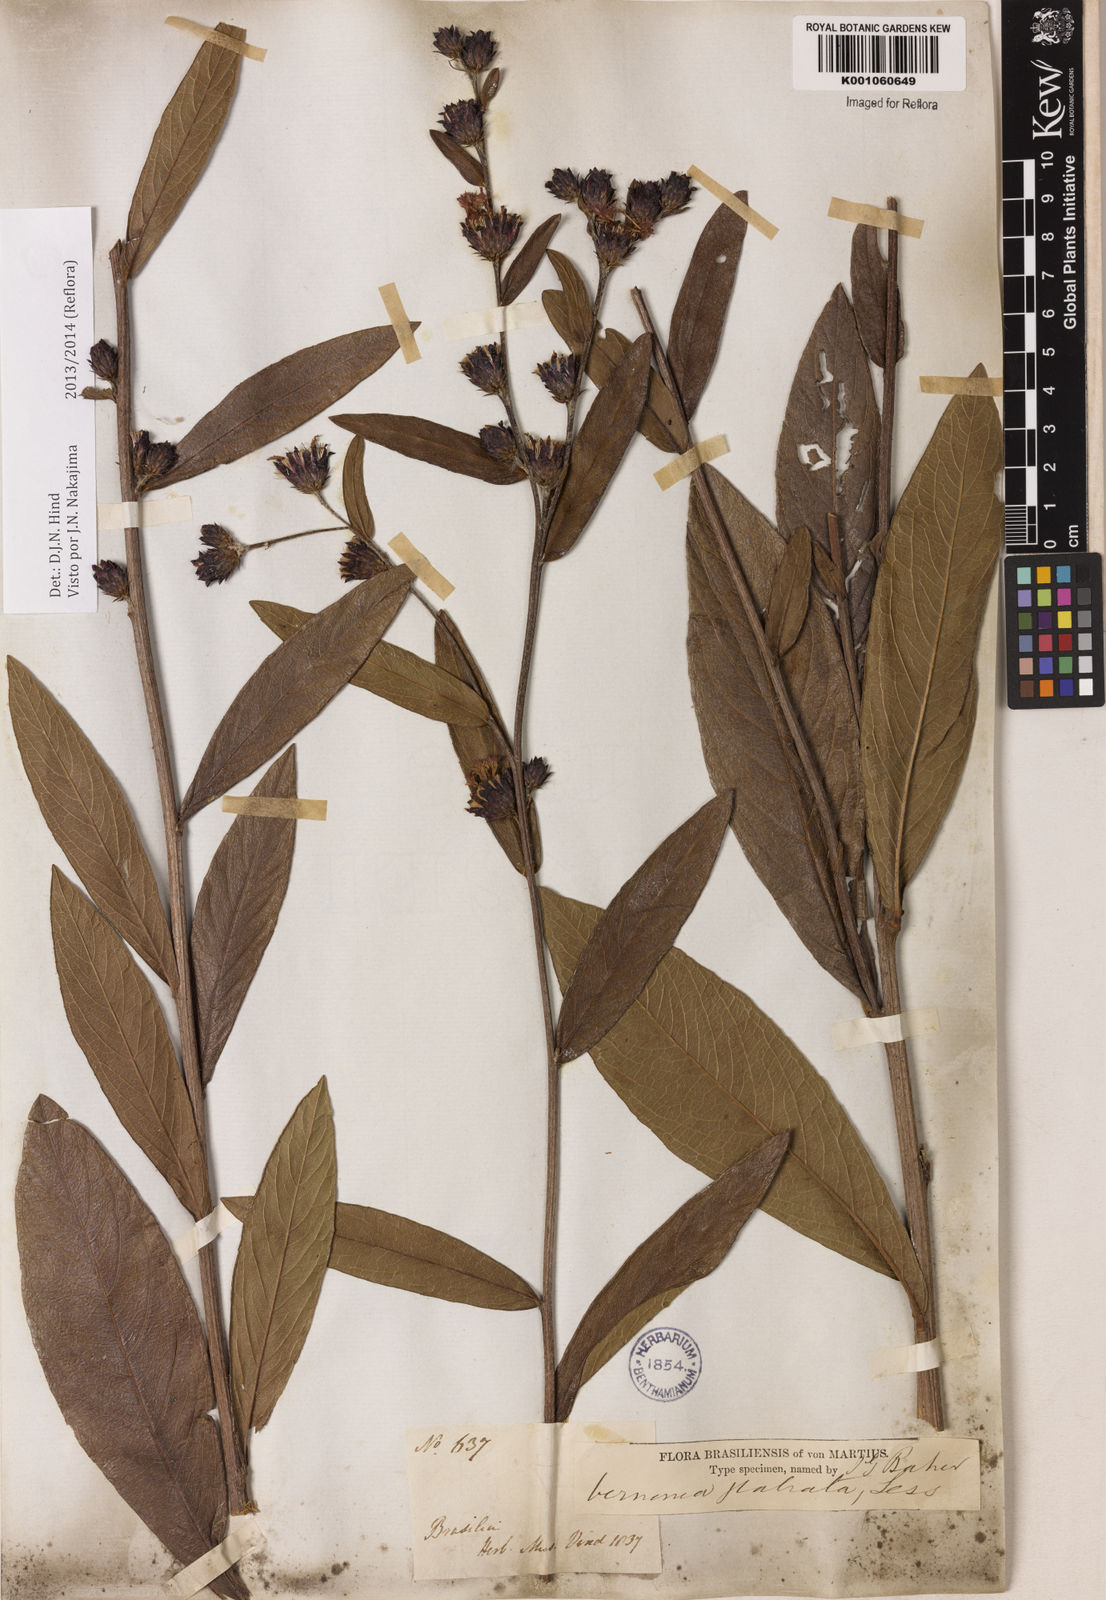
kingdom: Plantae
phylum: Tracheophyta
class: Magnoliopsida
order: Asterales
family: Asteraceae
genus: Lessingianthus
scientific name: Lessingianthus glabratus
